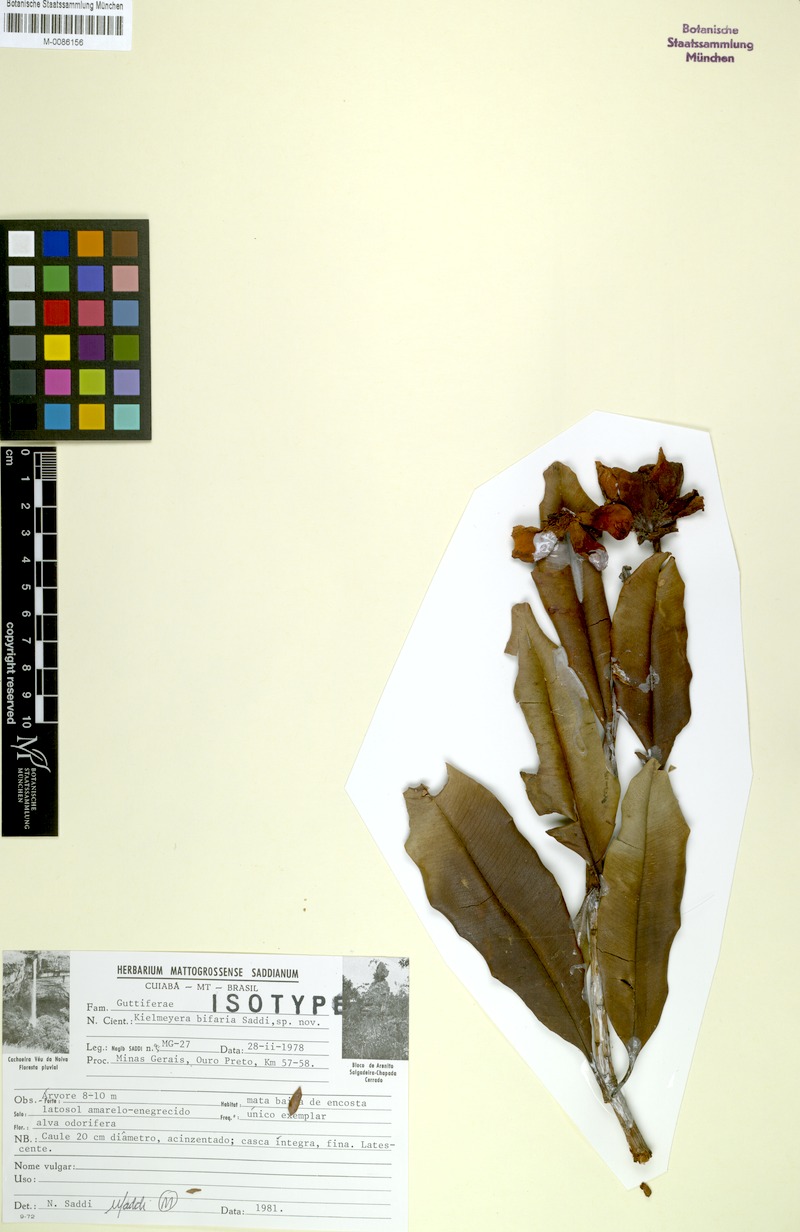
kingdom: Plantae
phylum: Tracheophyta
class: Magnoliopsida
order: Malpighiales
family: Calophyllaceae
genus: Kielmeyera
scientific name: Kielmeyera bifaria
